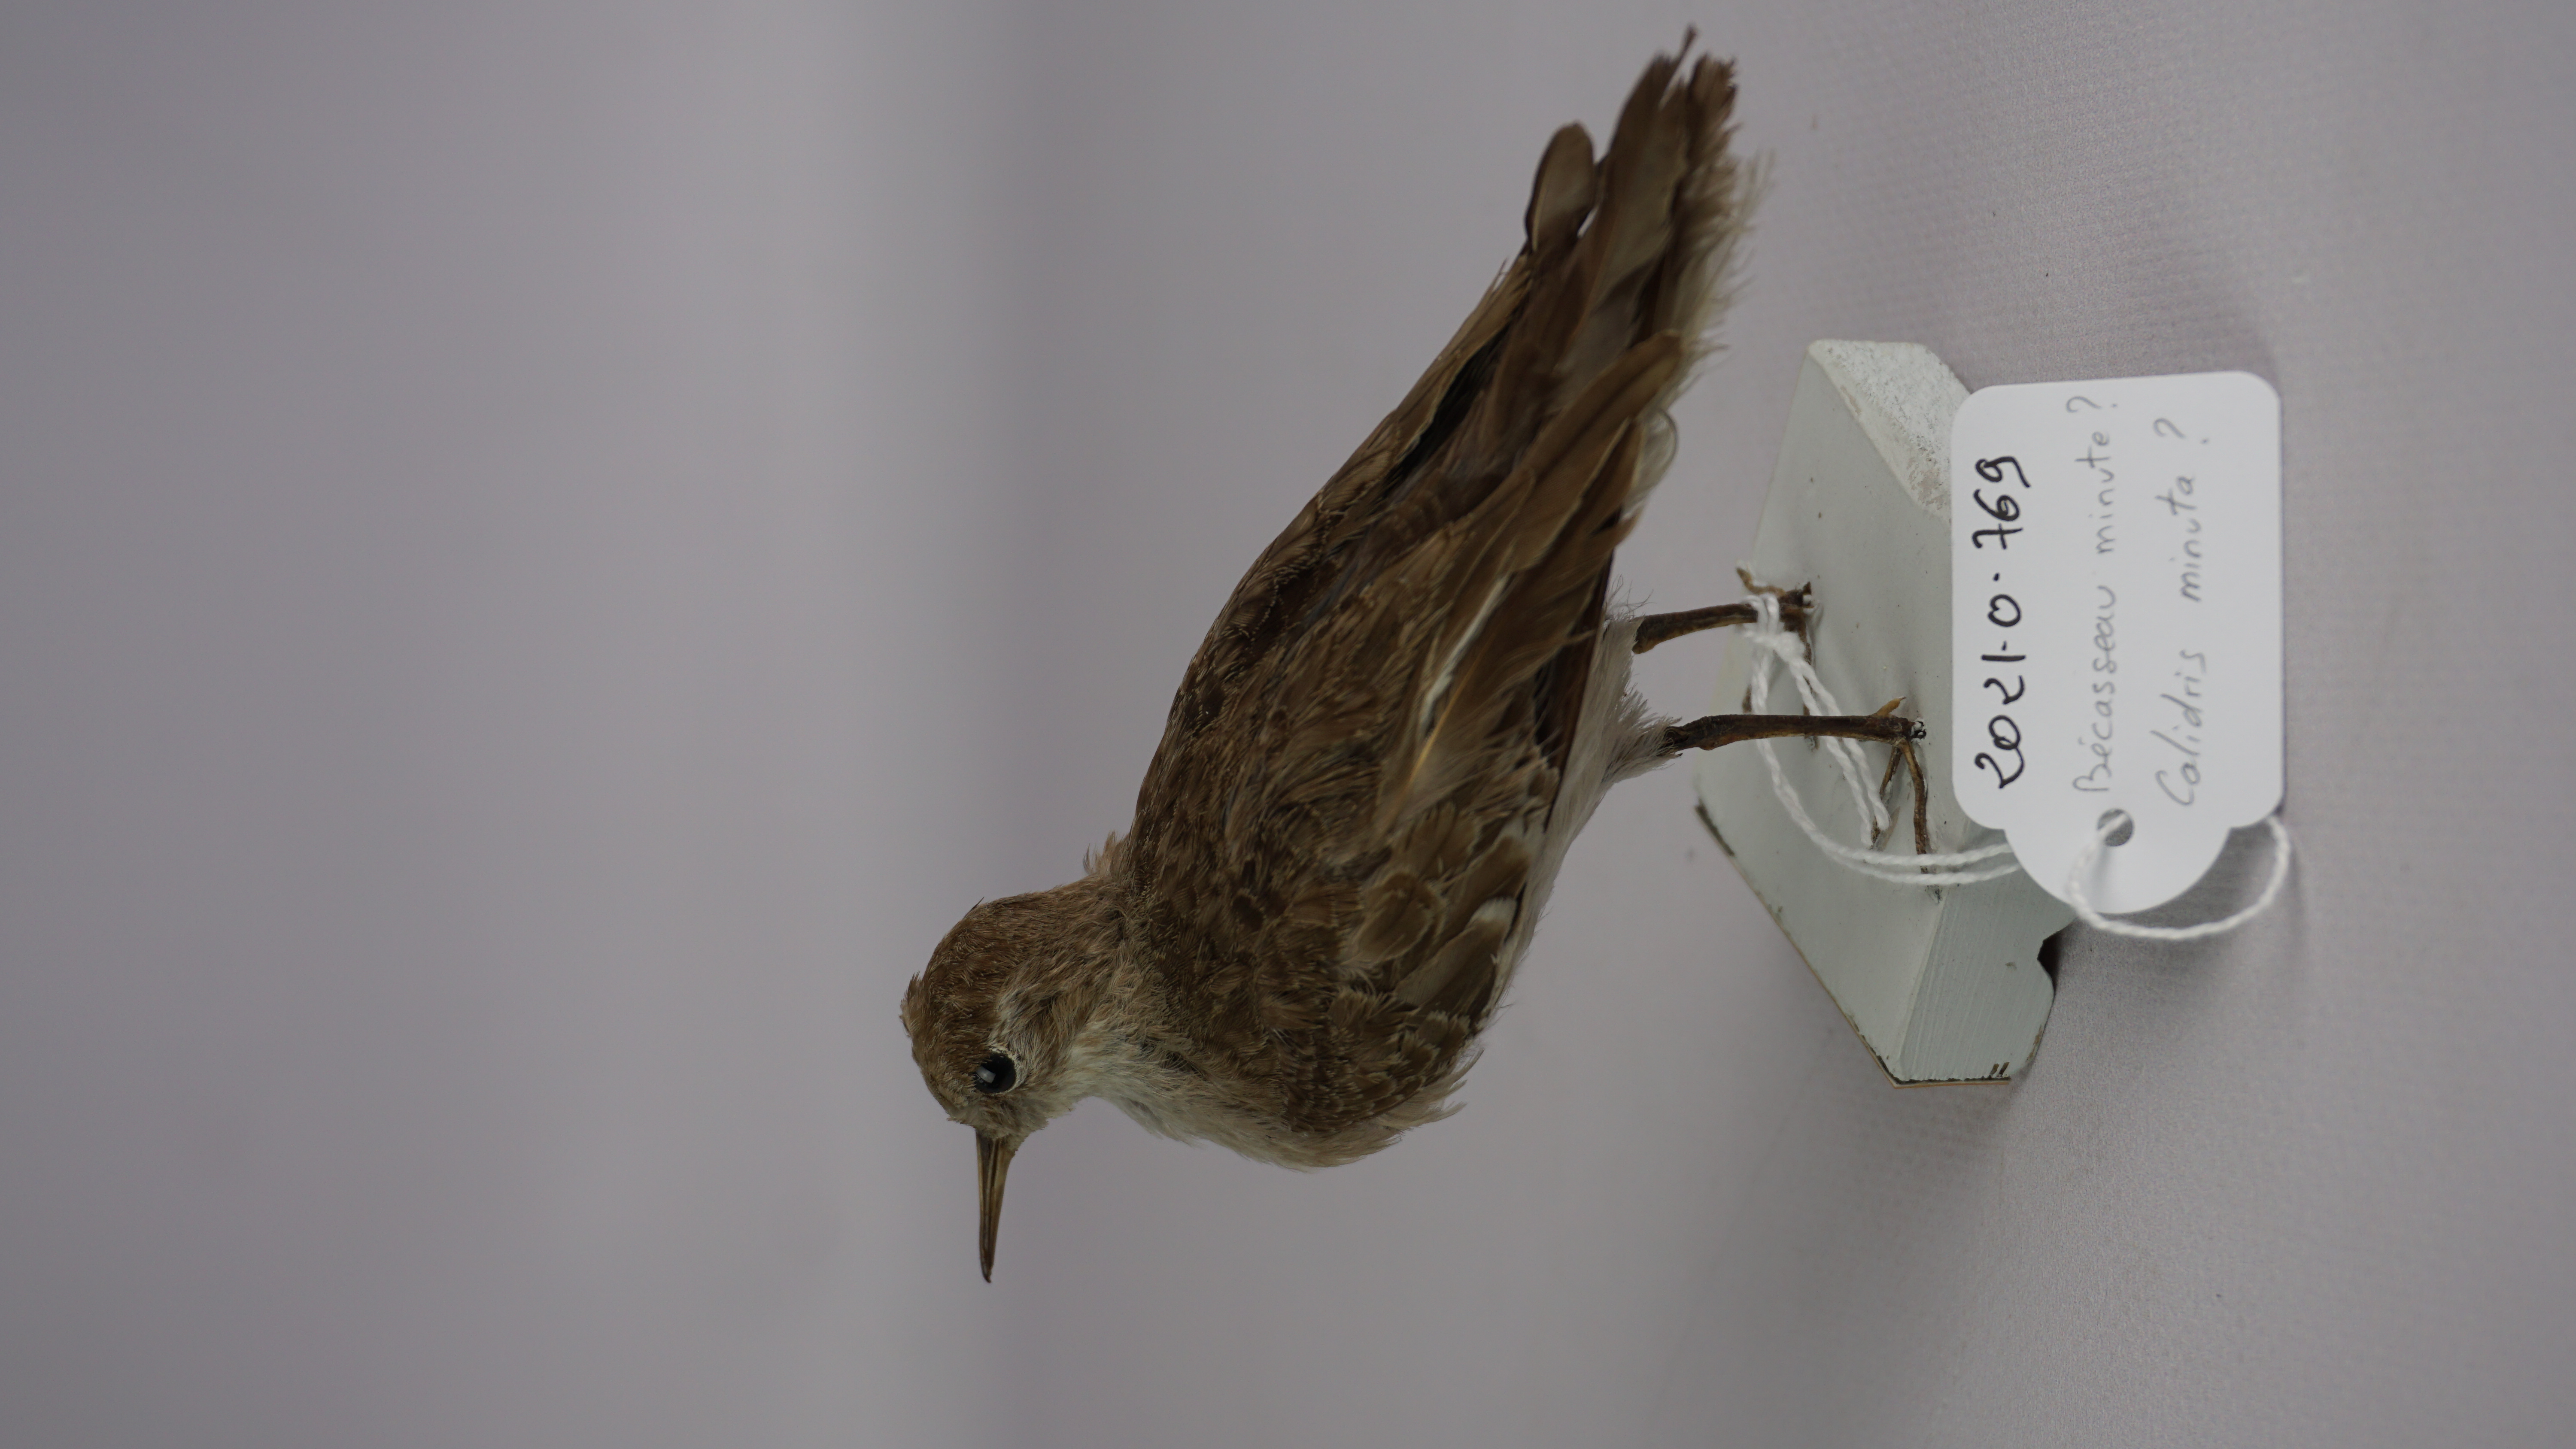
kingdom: Animalia
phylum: Chordata
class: Aves
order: Charadriiformes
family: Scolopacidae
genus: Calidris
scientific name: Calidris minuta
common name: Little stint
